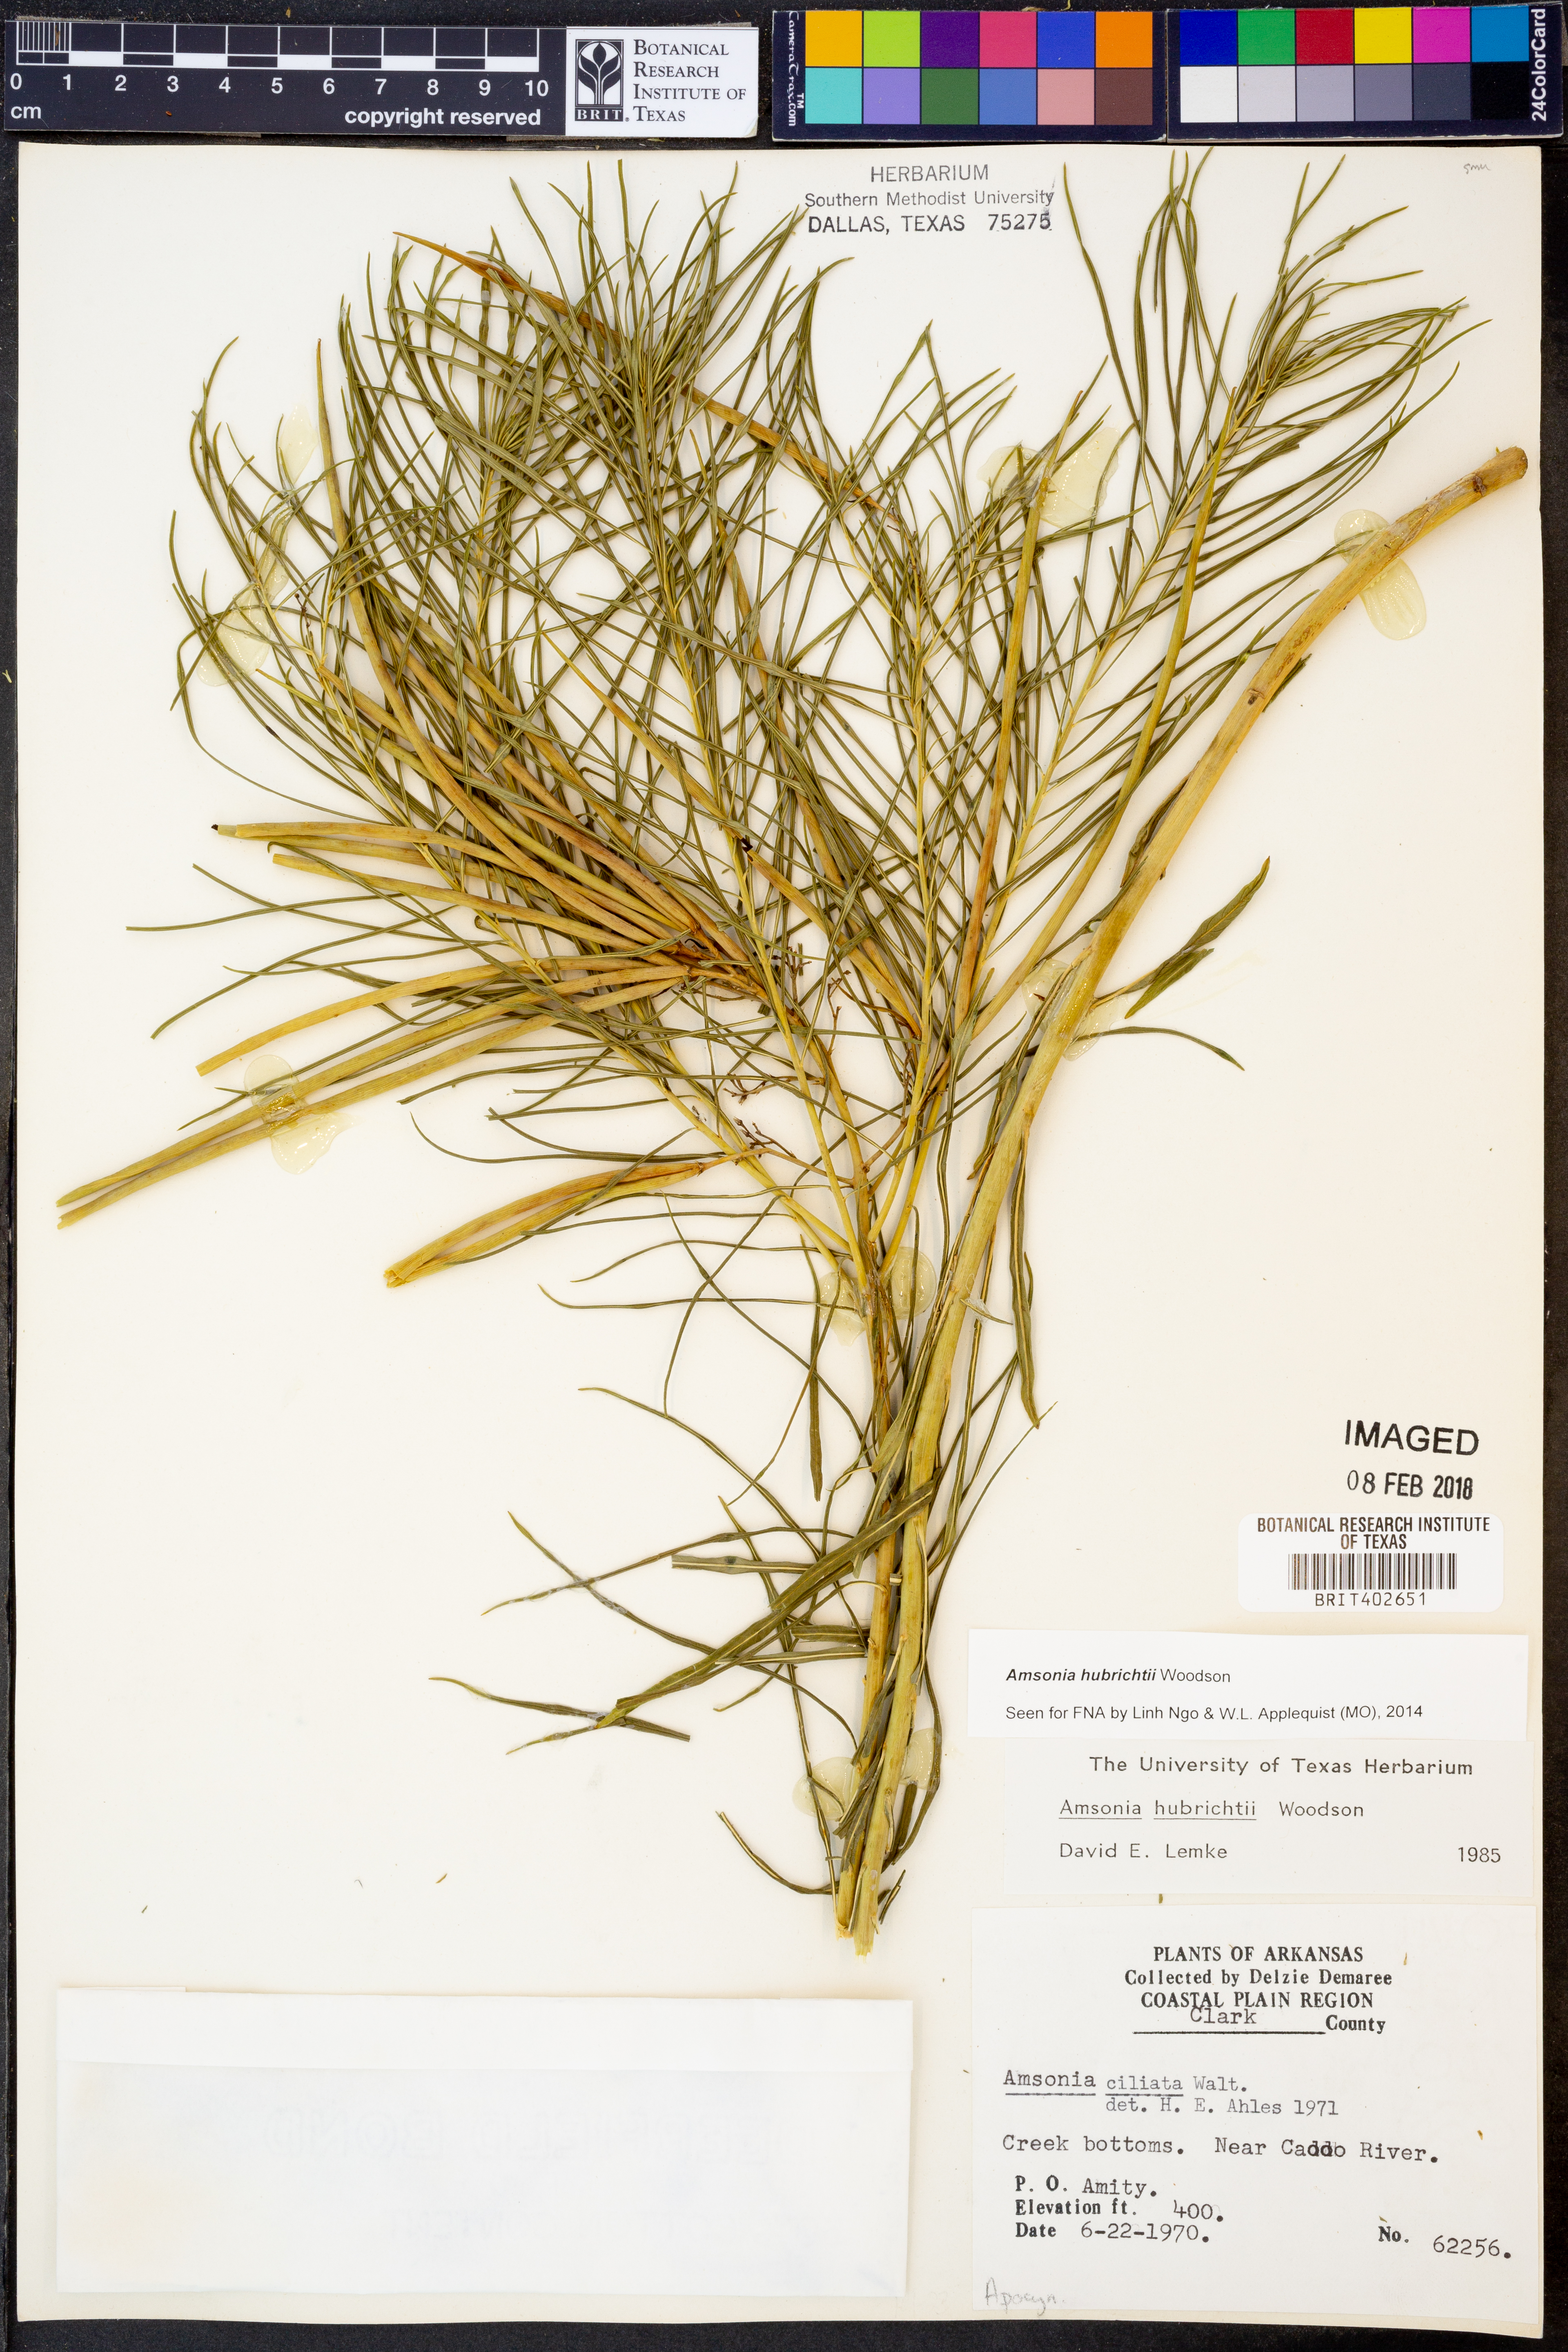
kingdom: Plantae
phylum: Tracheophyta
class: Magnoliopsida
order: Gentianales
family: Apocynaceae
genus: Amsonia
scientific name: Amsonia hubrichtii
